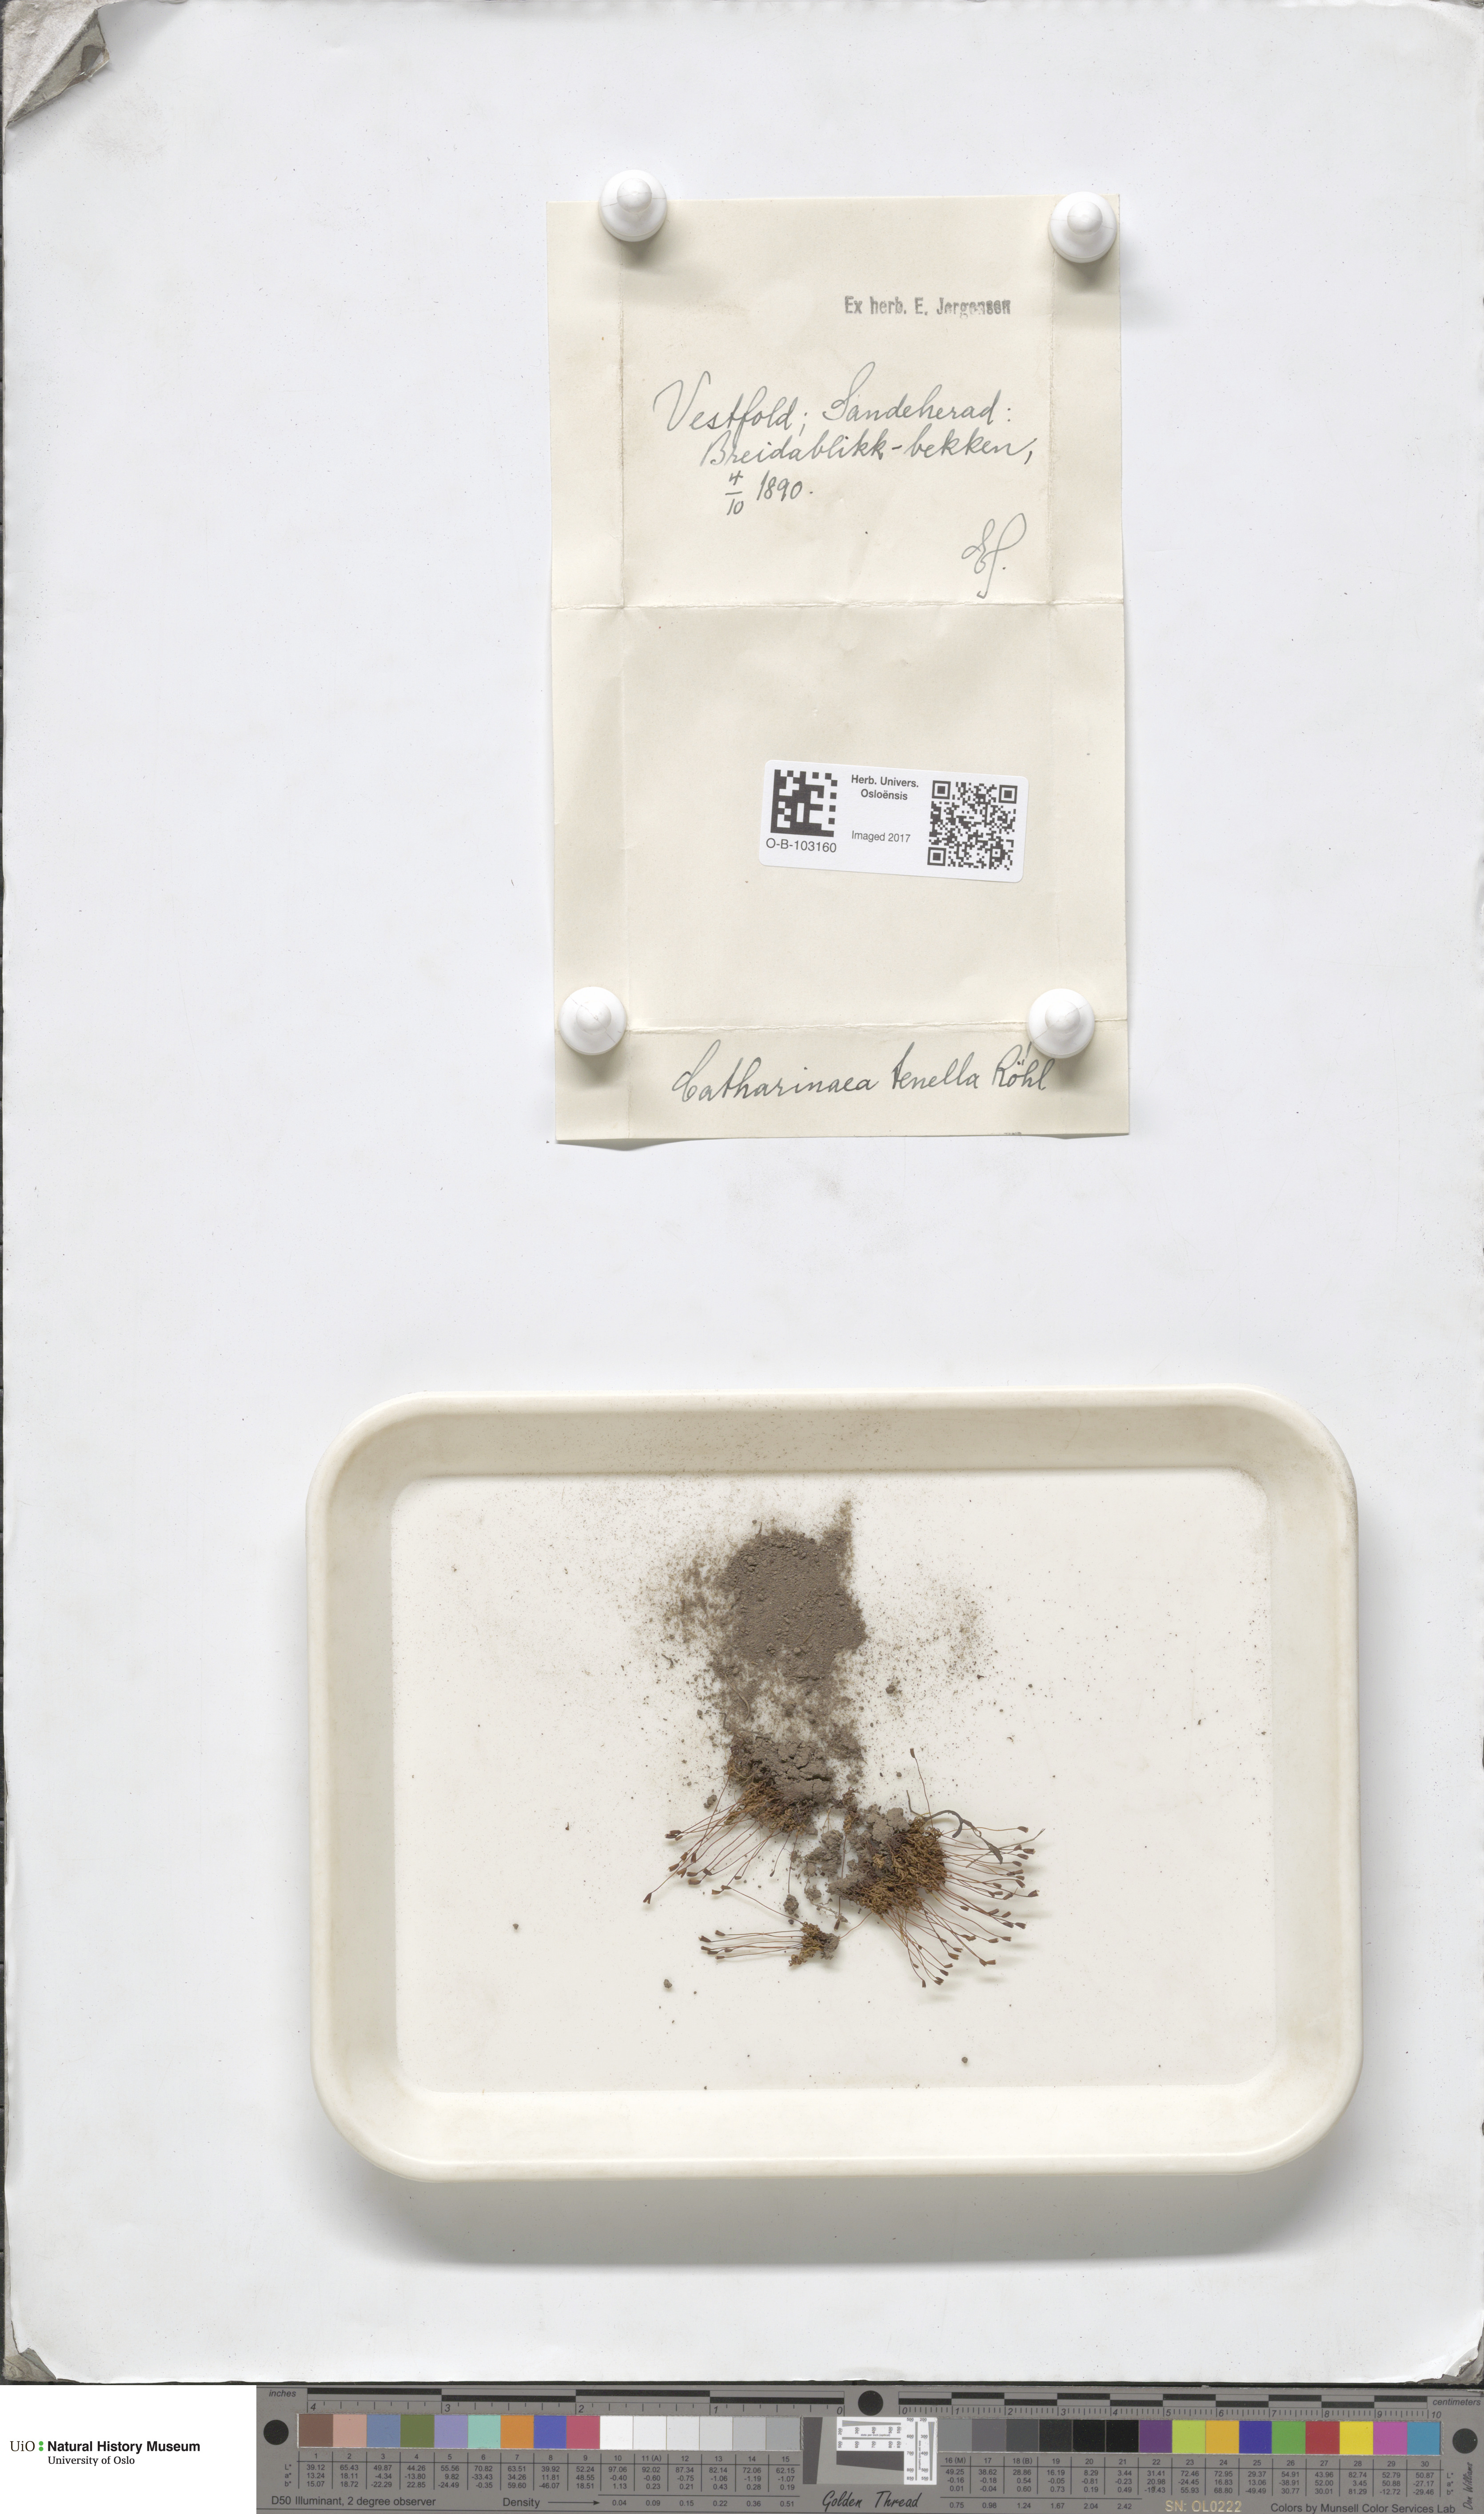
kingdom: Plantae
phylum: Bryophyta
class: Polytrichopsida
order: Polytrichales
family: Polytrichaceae
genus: Atrichum
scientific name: Atrichum tenellum
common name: Slender smoothcap moss
